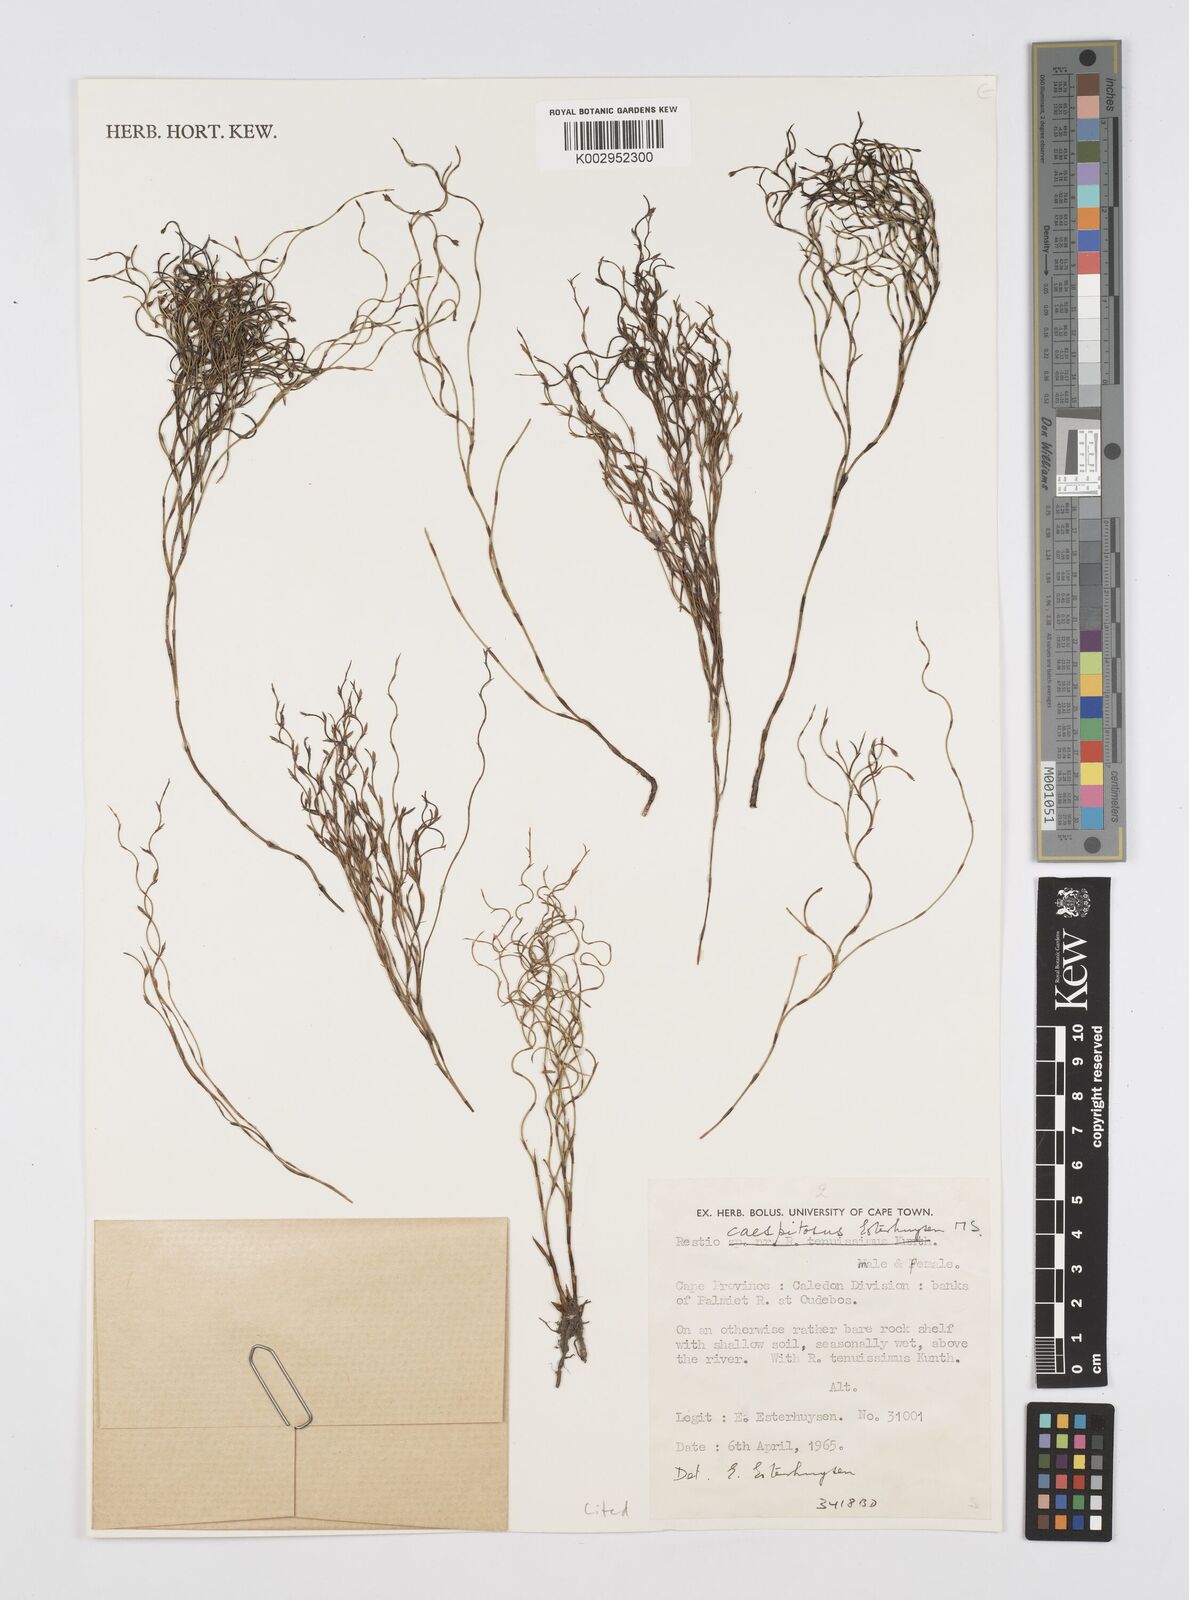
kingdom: Plantae
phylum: Tracheophyta
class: Liliopsida
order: Poales
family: Restionaceae
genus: Restio
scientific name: Restio caespitosus
